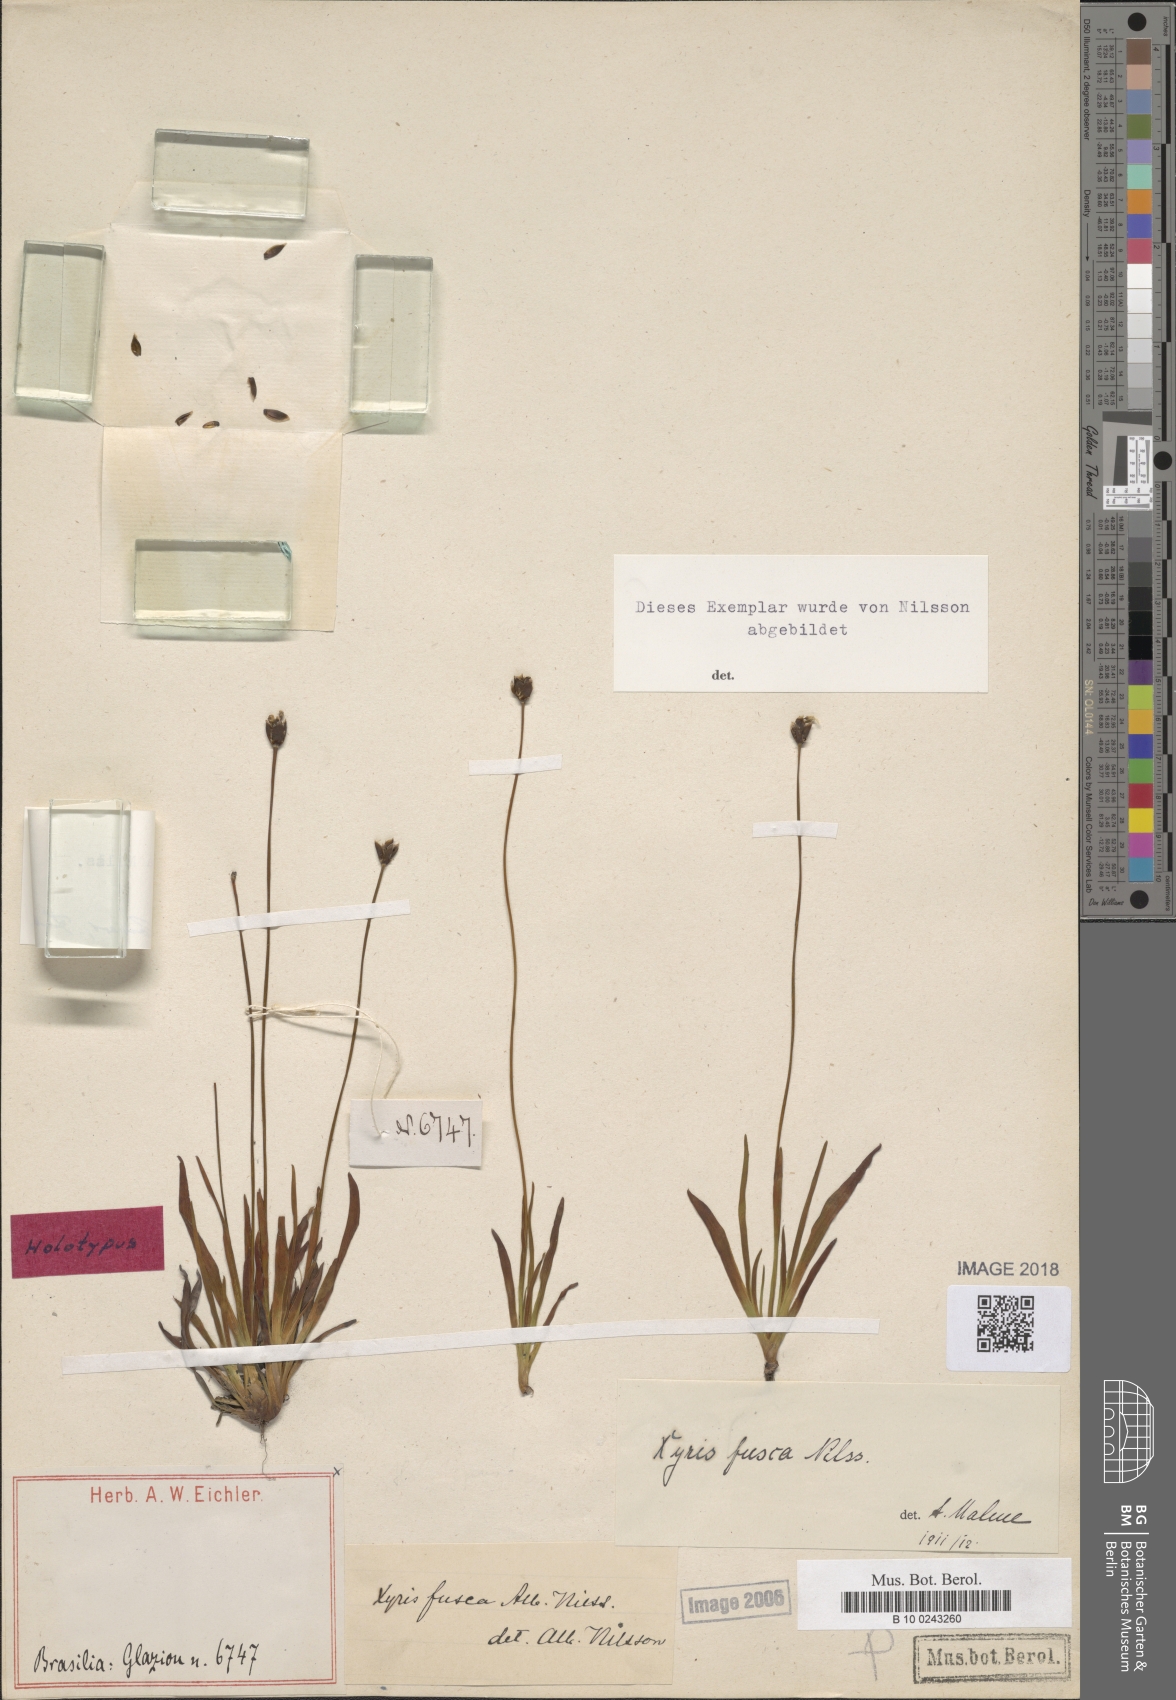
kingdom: Plantae
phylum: Tracheophyta
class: Liliopsida
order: Poales
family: Xyridaceae
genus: Xyris
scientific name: Xyris
